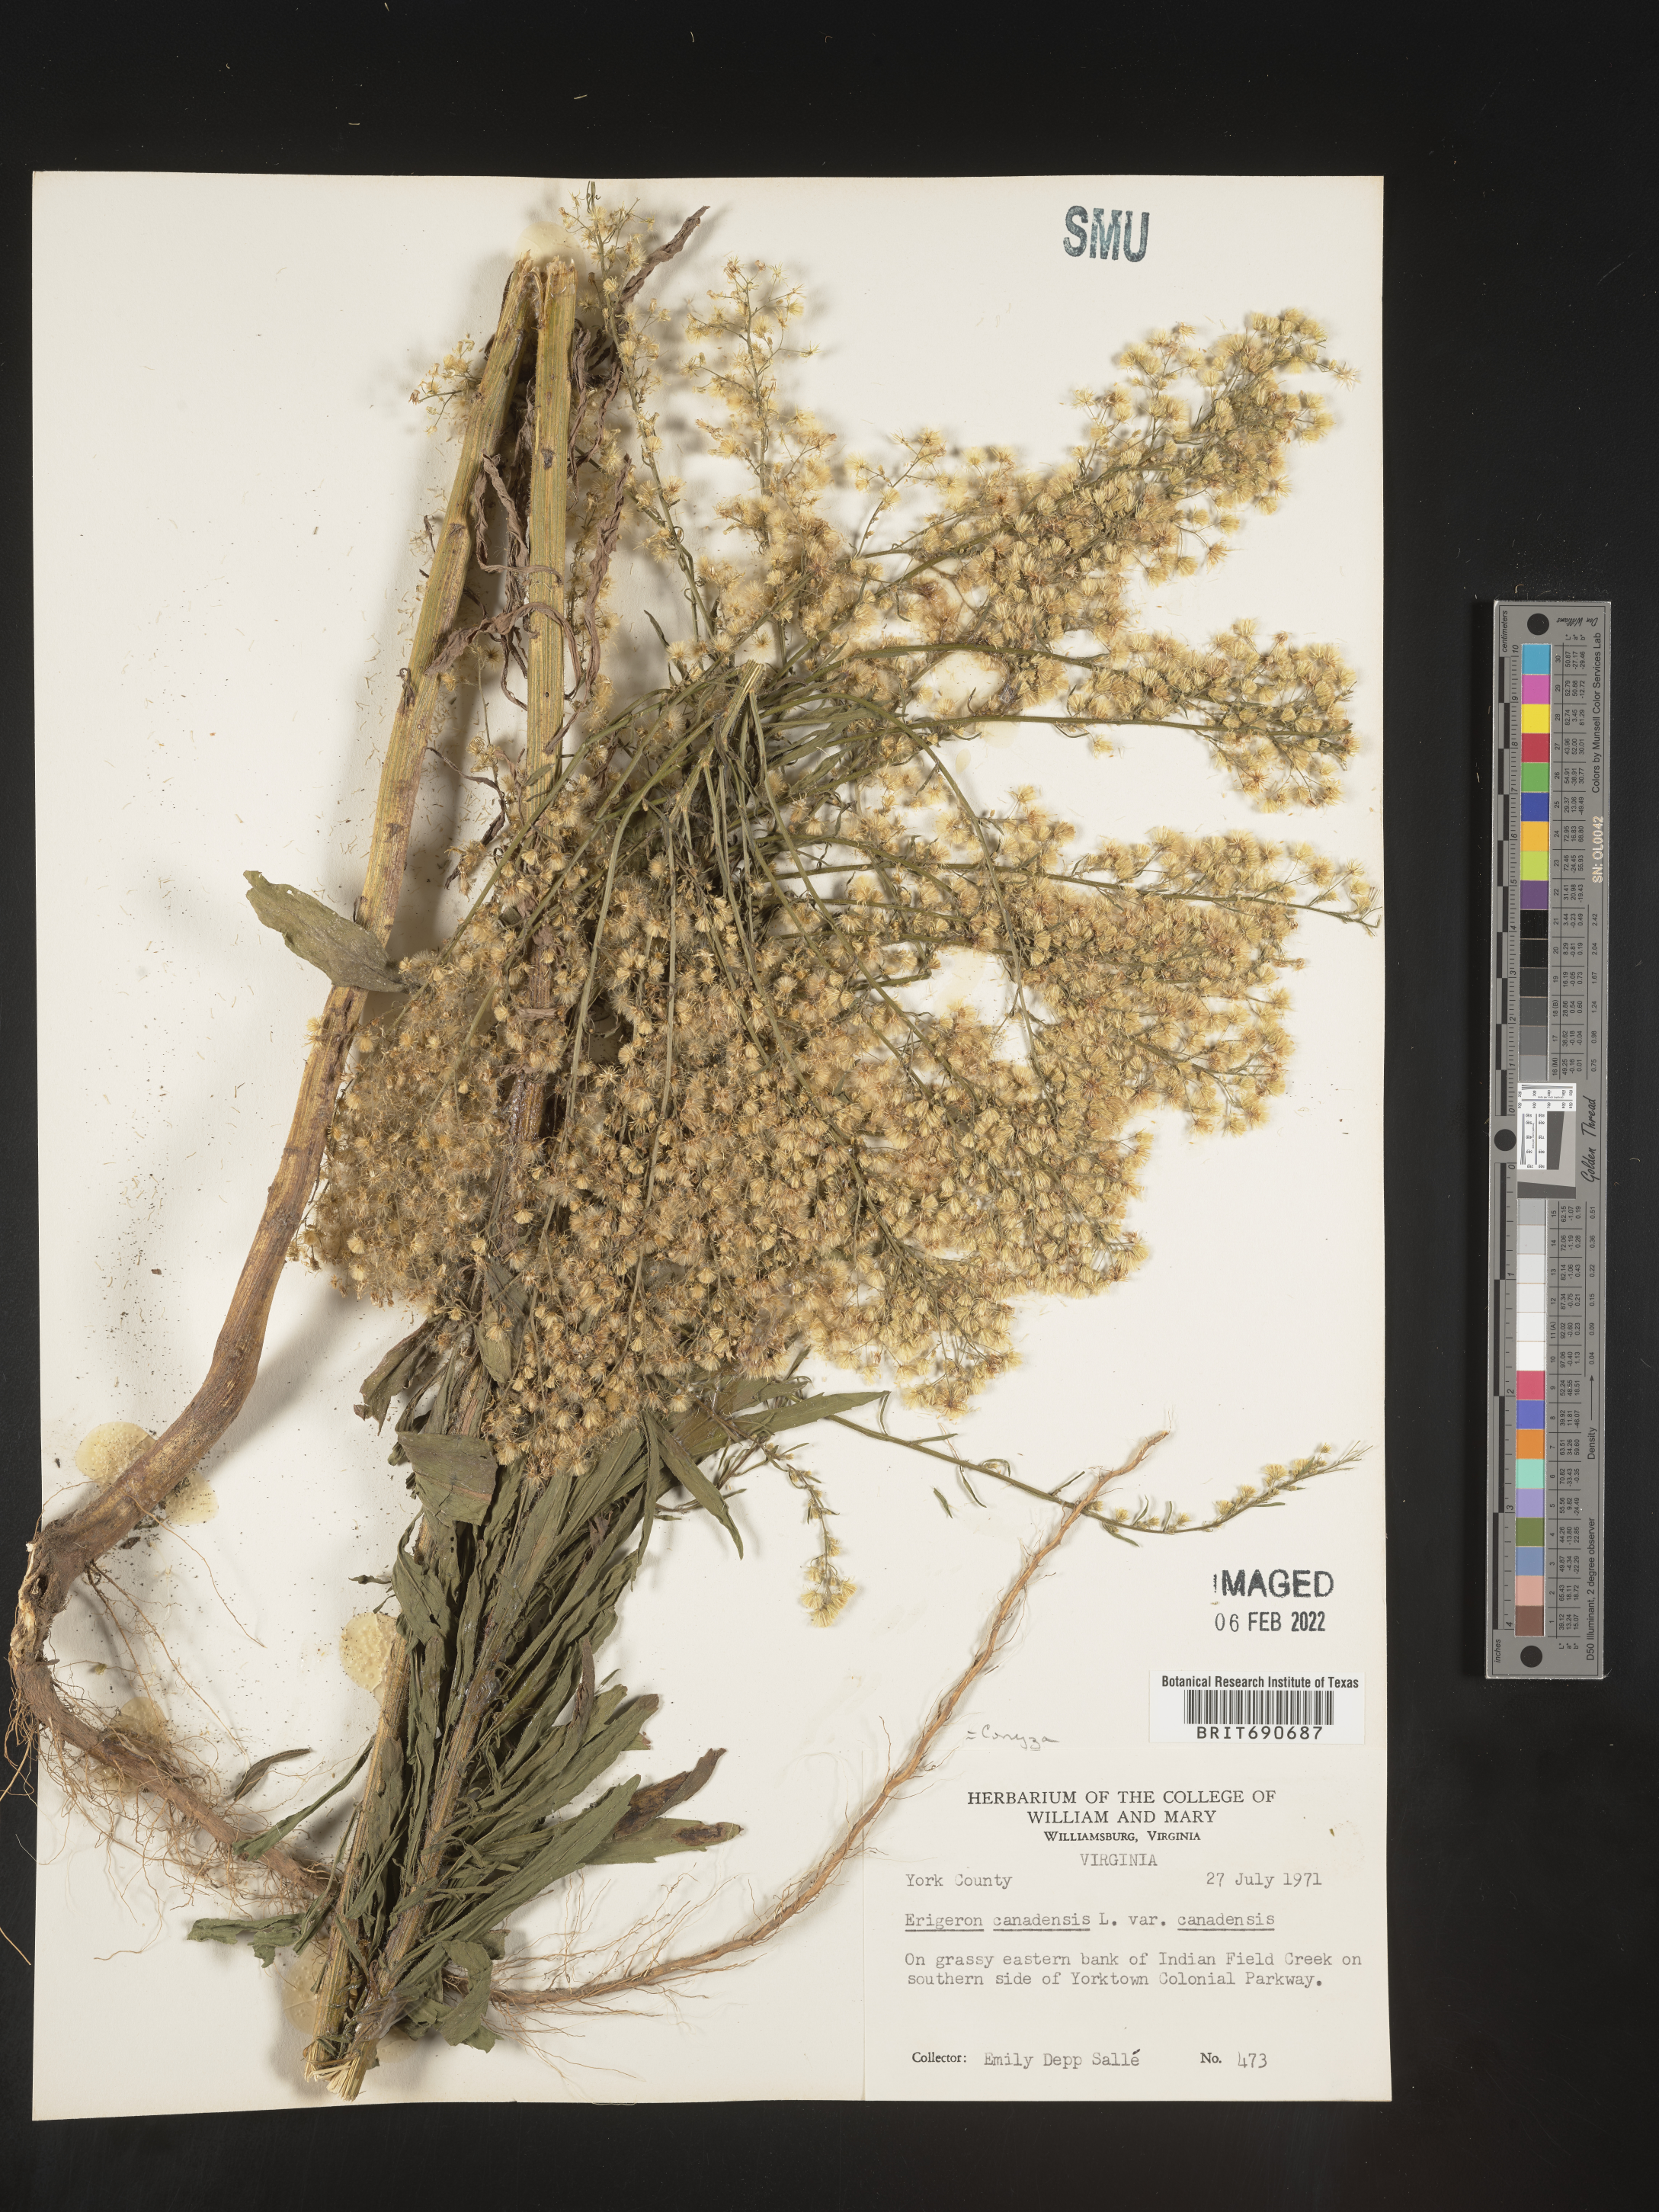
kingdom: Plantae
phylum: Tracheophyta
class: Magnoliopsida
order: Asterales
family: Asteraceae
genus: Erigeron
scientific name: Erigeron canadensis
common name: Canadian fleabane
